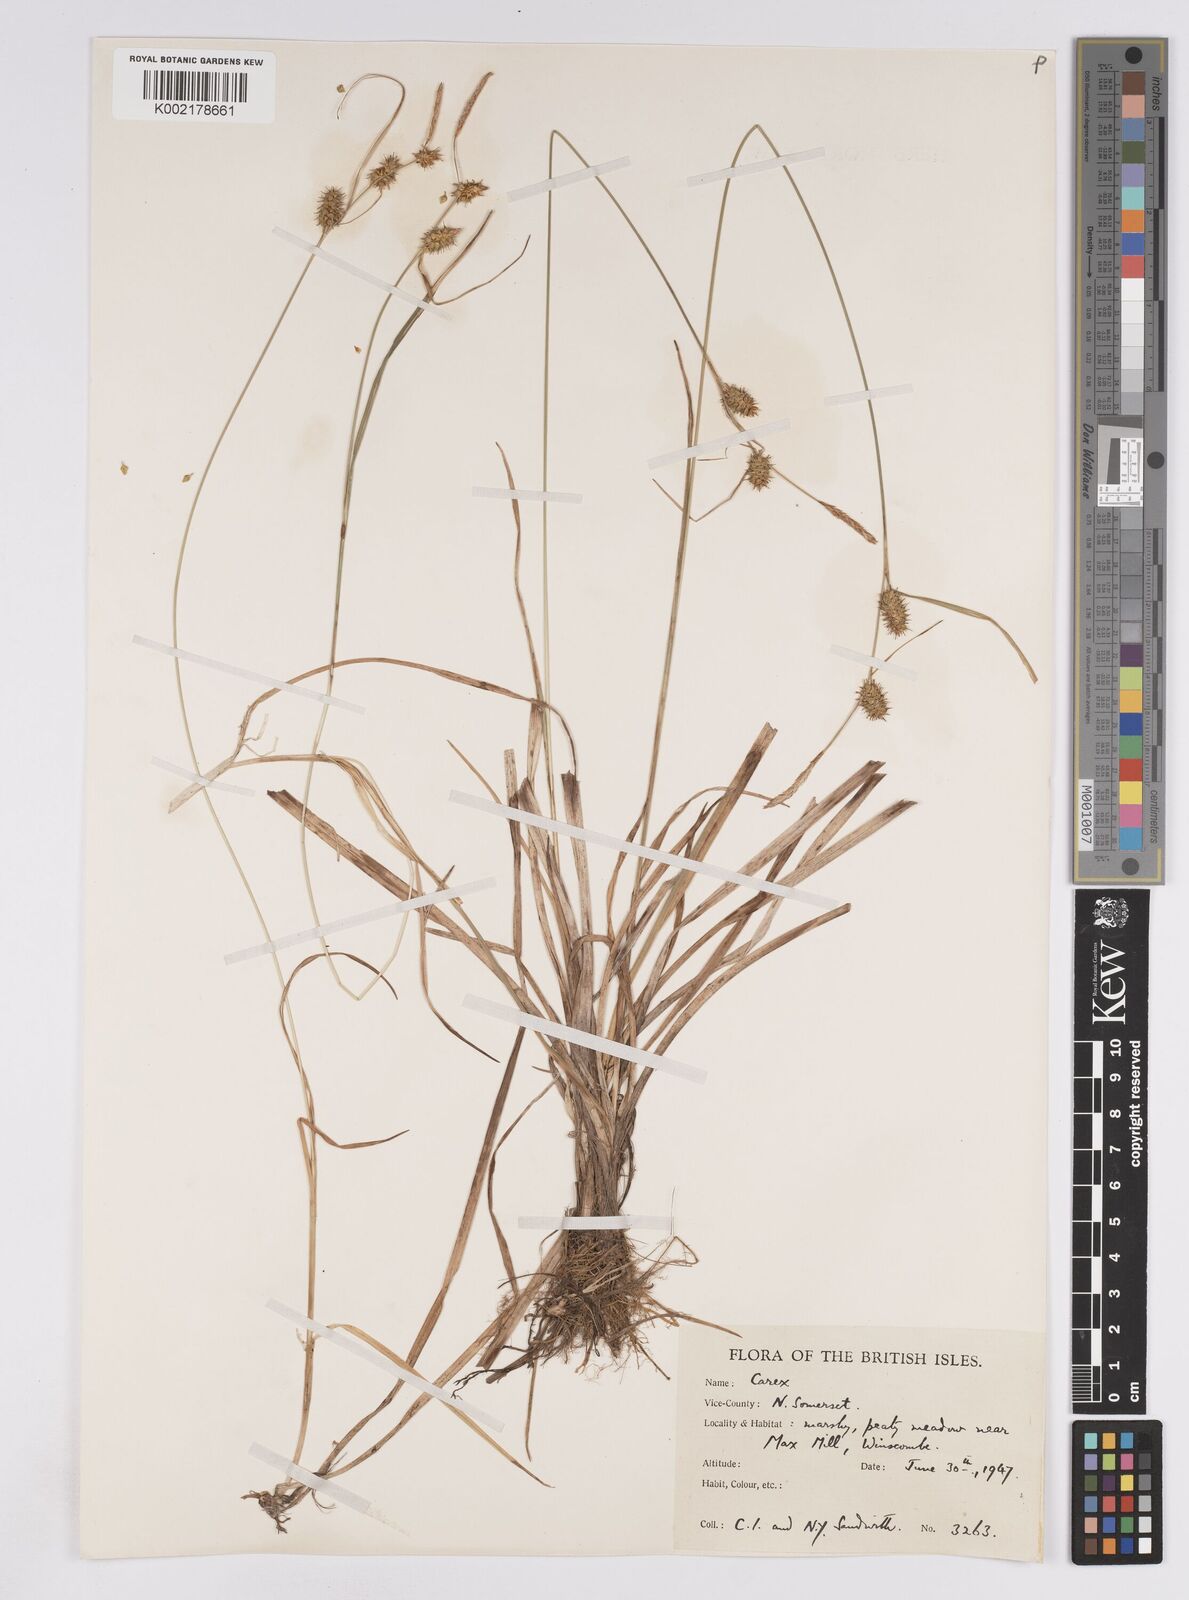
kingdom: Plantae
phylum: Tracheophyta
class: Liliopsida
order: Poales
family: Cyperaceae
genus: Carex
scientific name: Carex lepidocarpa
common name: Long-stalked yellow-sedge
